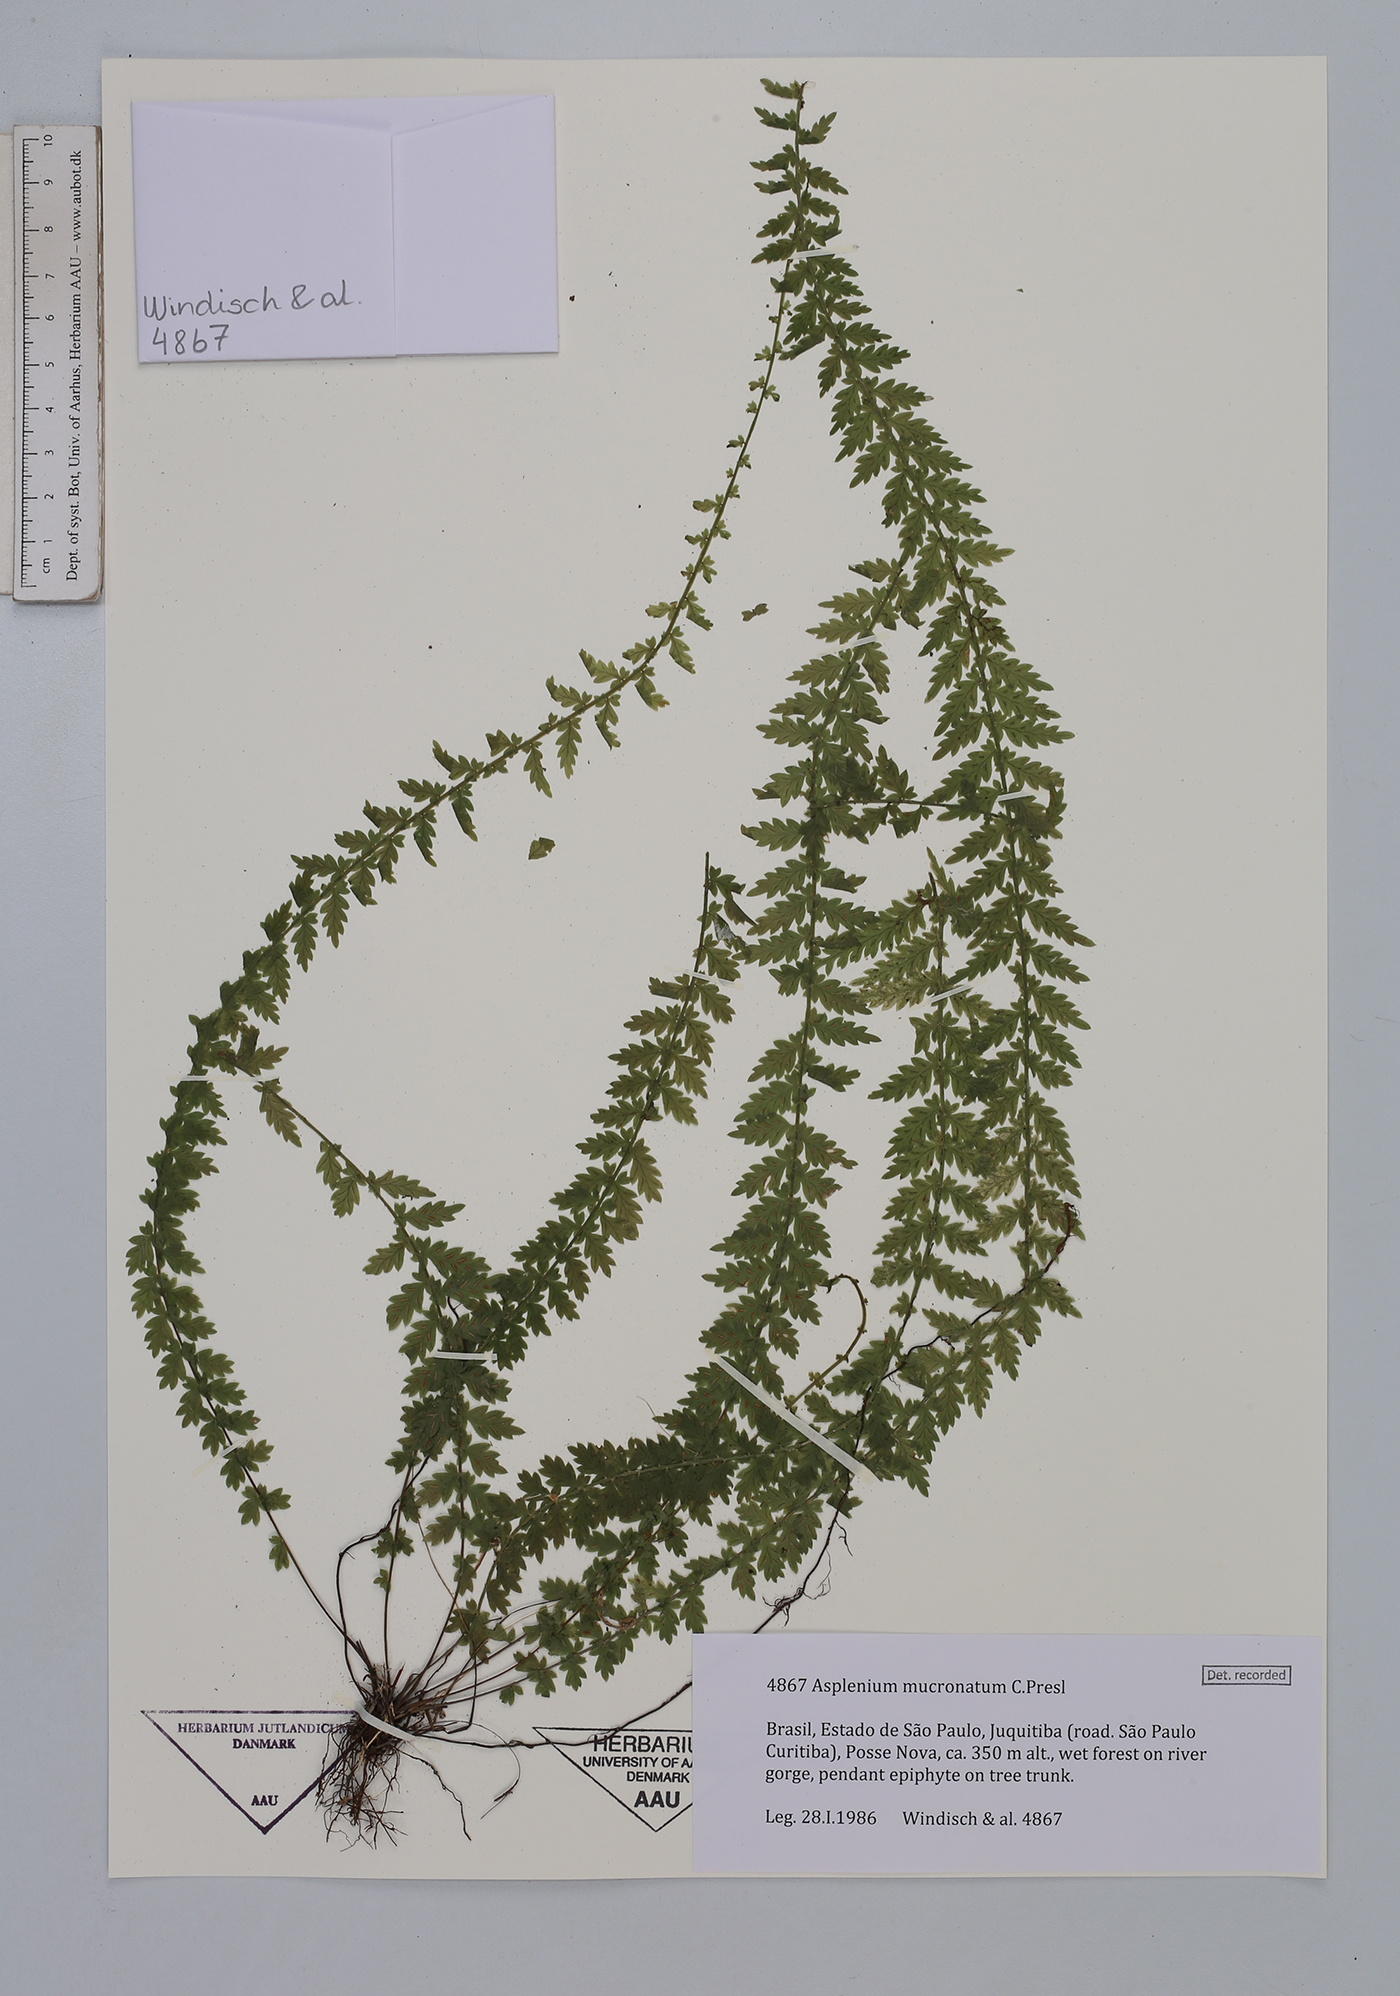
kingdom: Plantae
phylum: Tracheophyta
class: Polypodiopsida
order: Polypodiales
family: Aspleniaceae
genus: Asplenium
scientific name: Asplenium mucronatum
